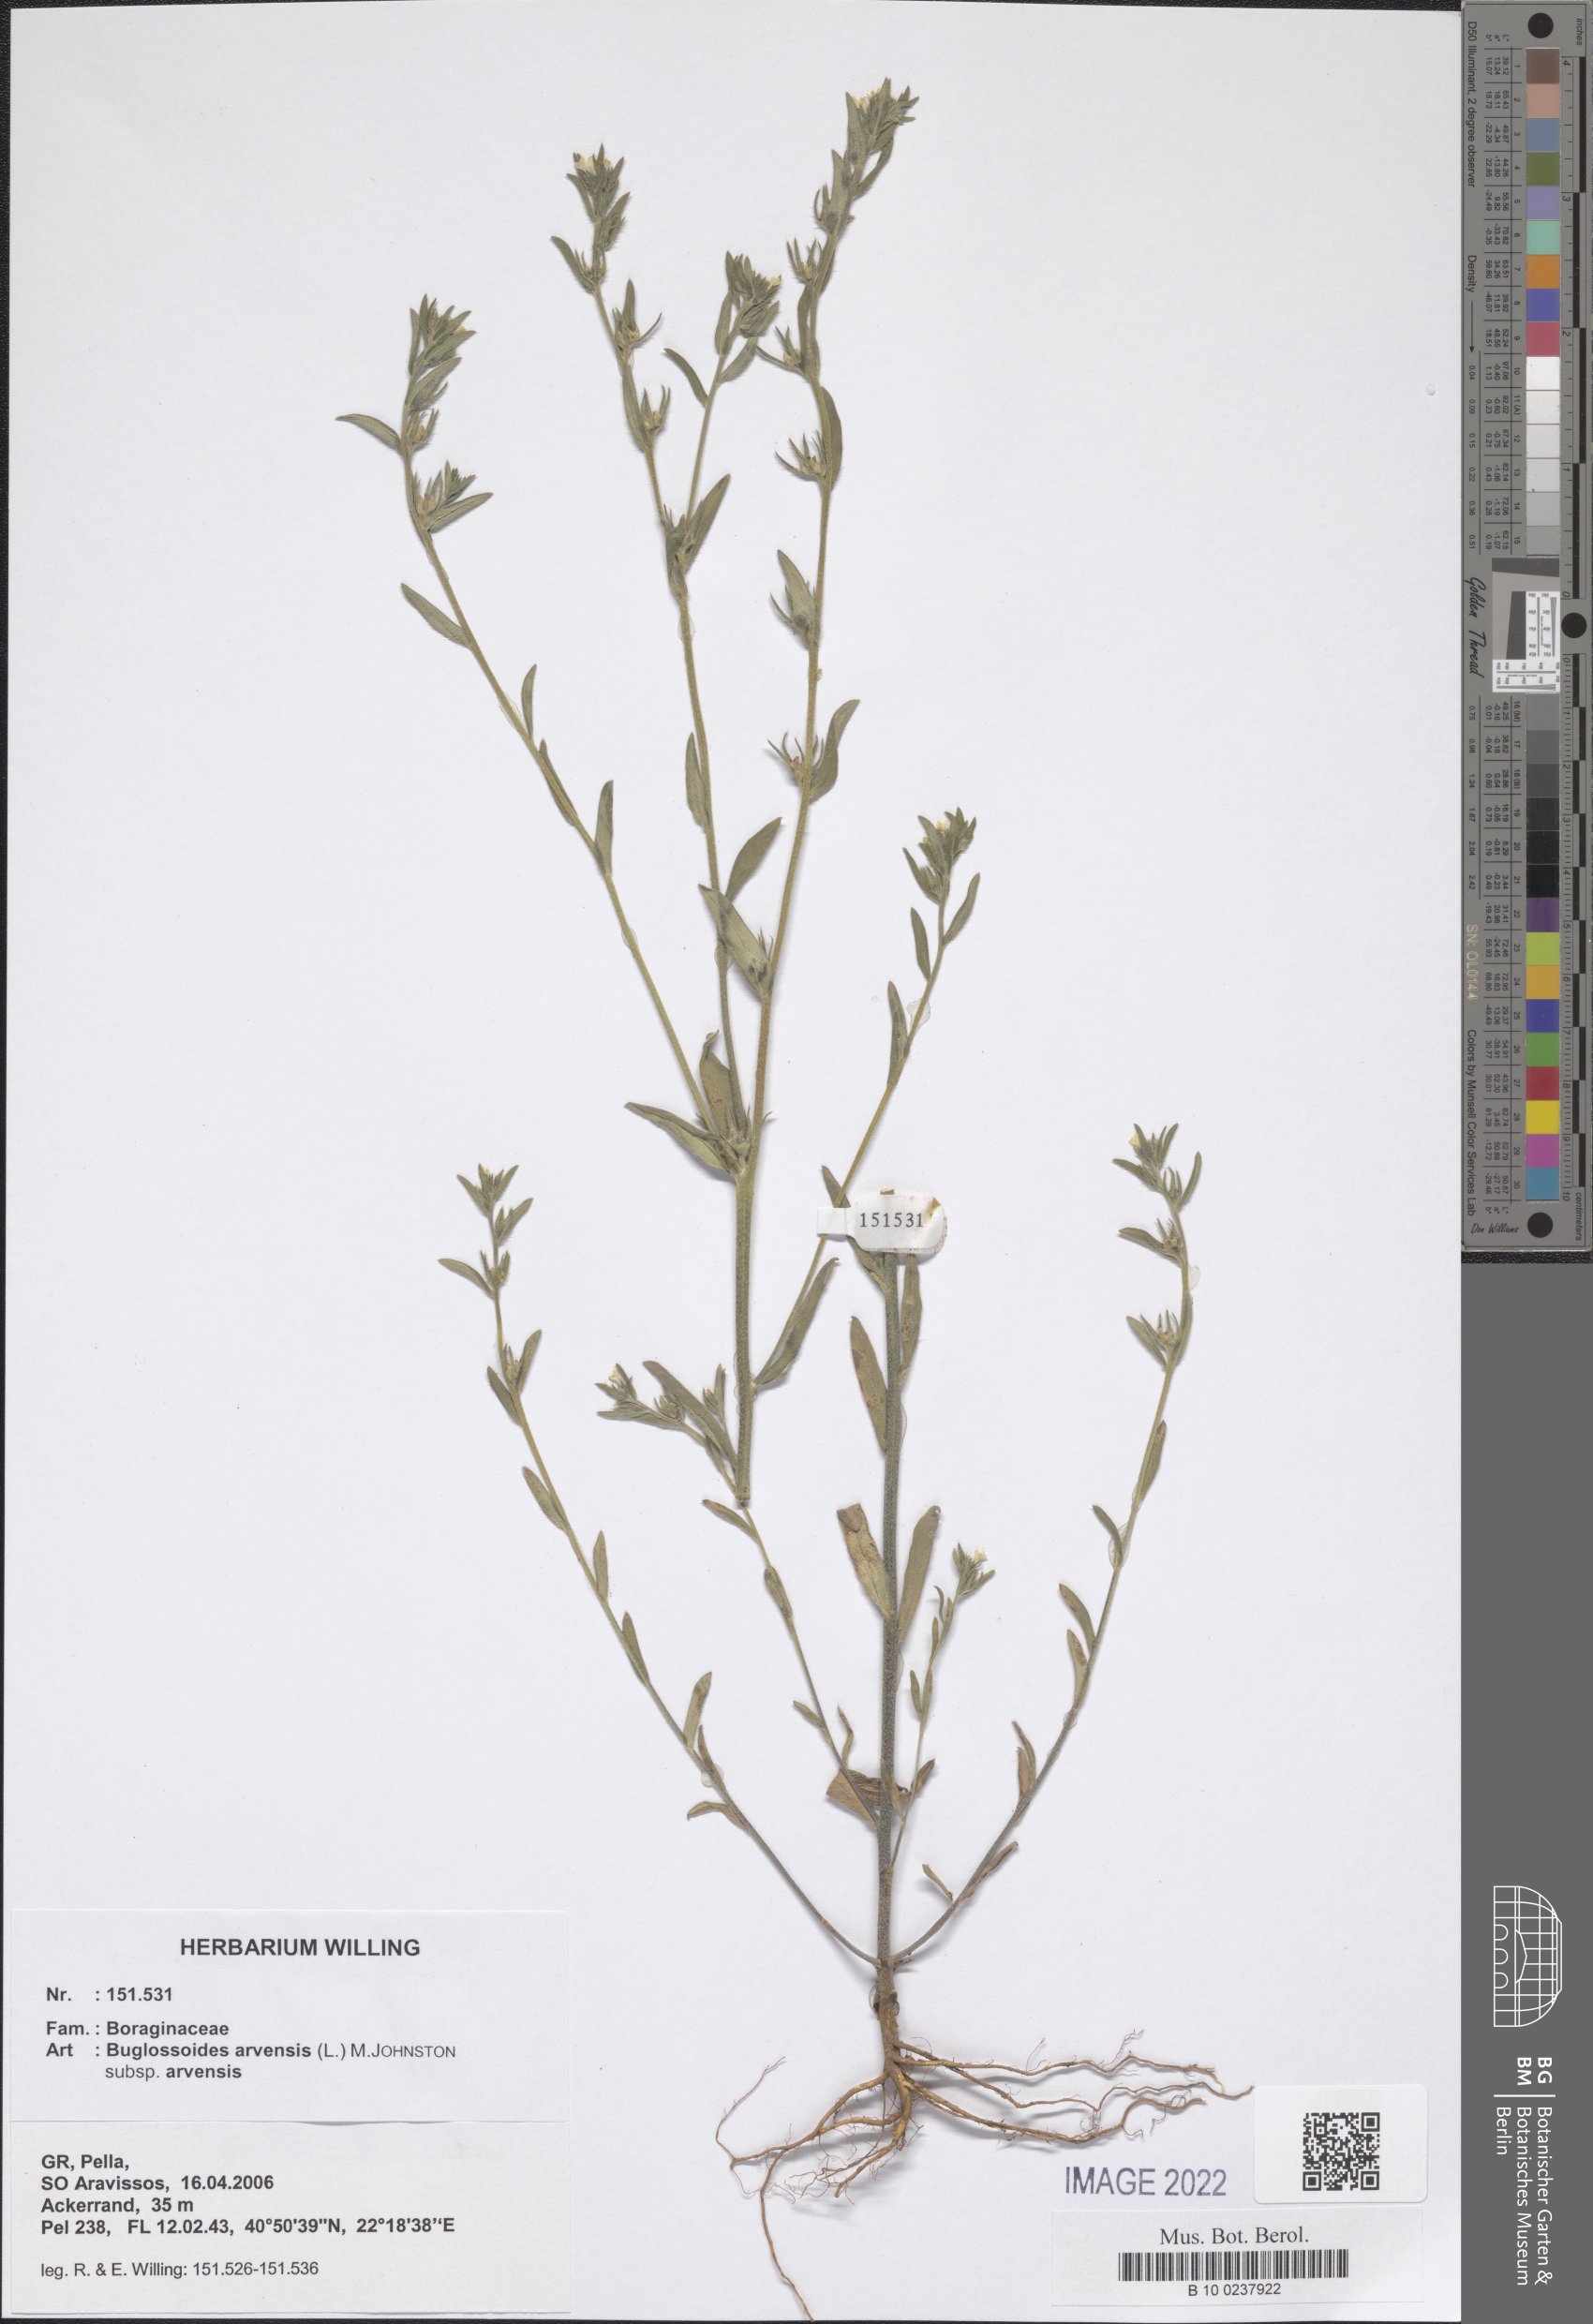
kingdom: Plantae
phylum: Tracheophyta
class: Magnoliopsida
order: Boraginales
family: Boraginaceae
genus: Buglossoides
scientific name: Buglossoides arvensis
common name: Corn gromwell
